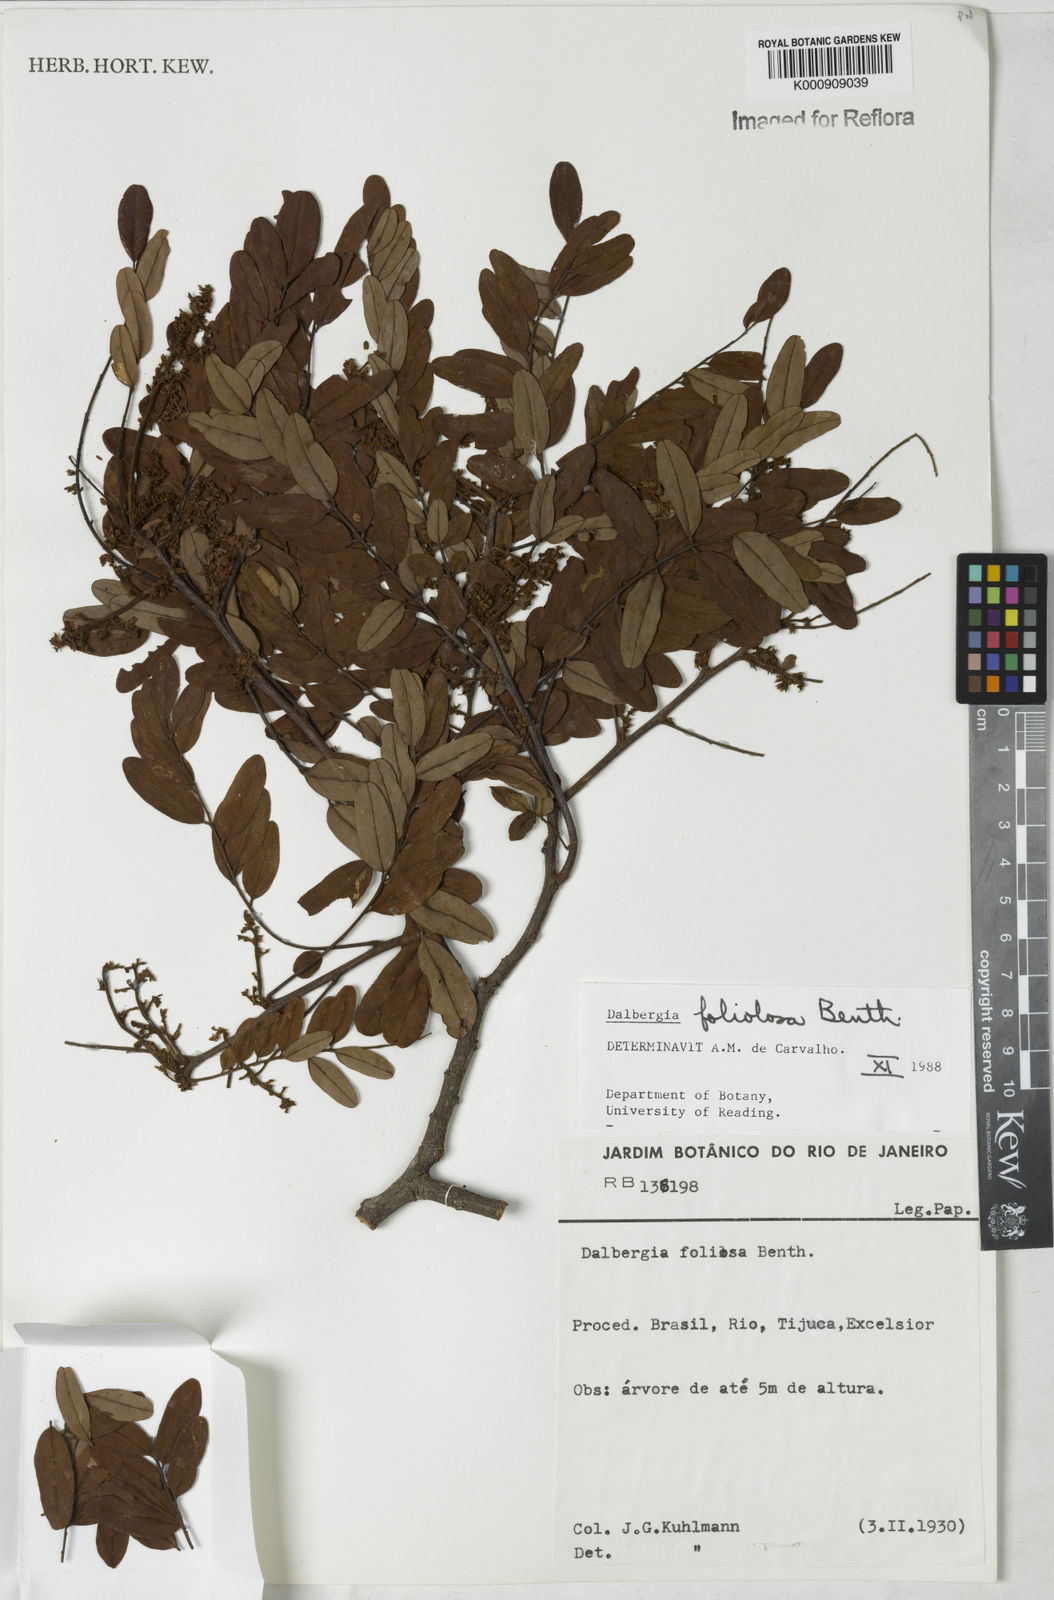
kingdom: Plantae
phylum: Tracheophyta
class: Magnoliopsida
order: Fabales
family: Fabaceae
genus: Dalbergia
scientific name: Dalbergia foliolosa
